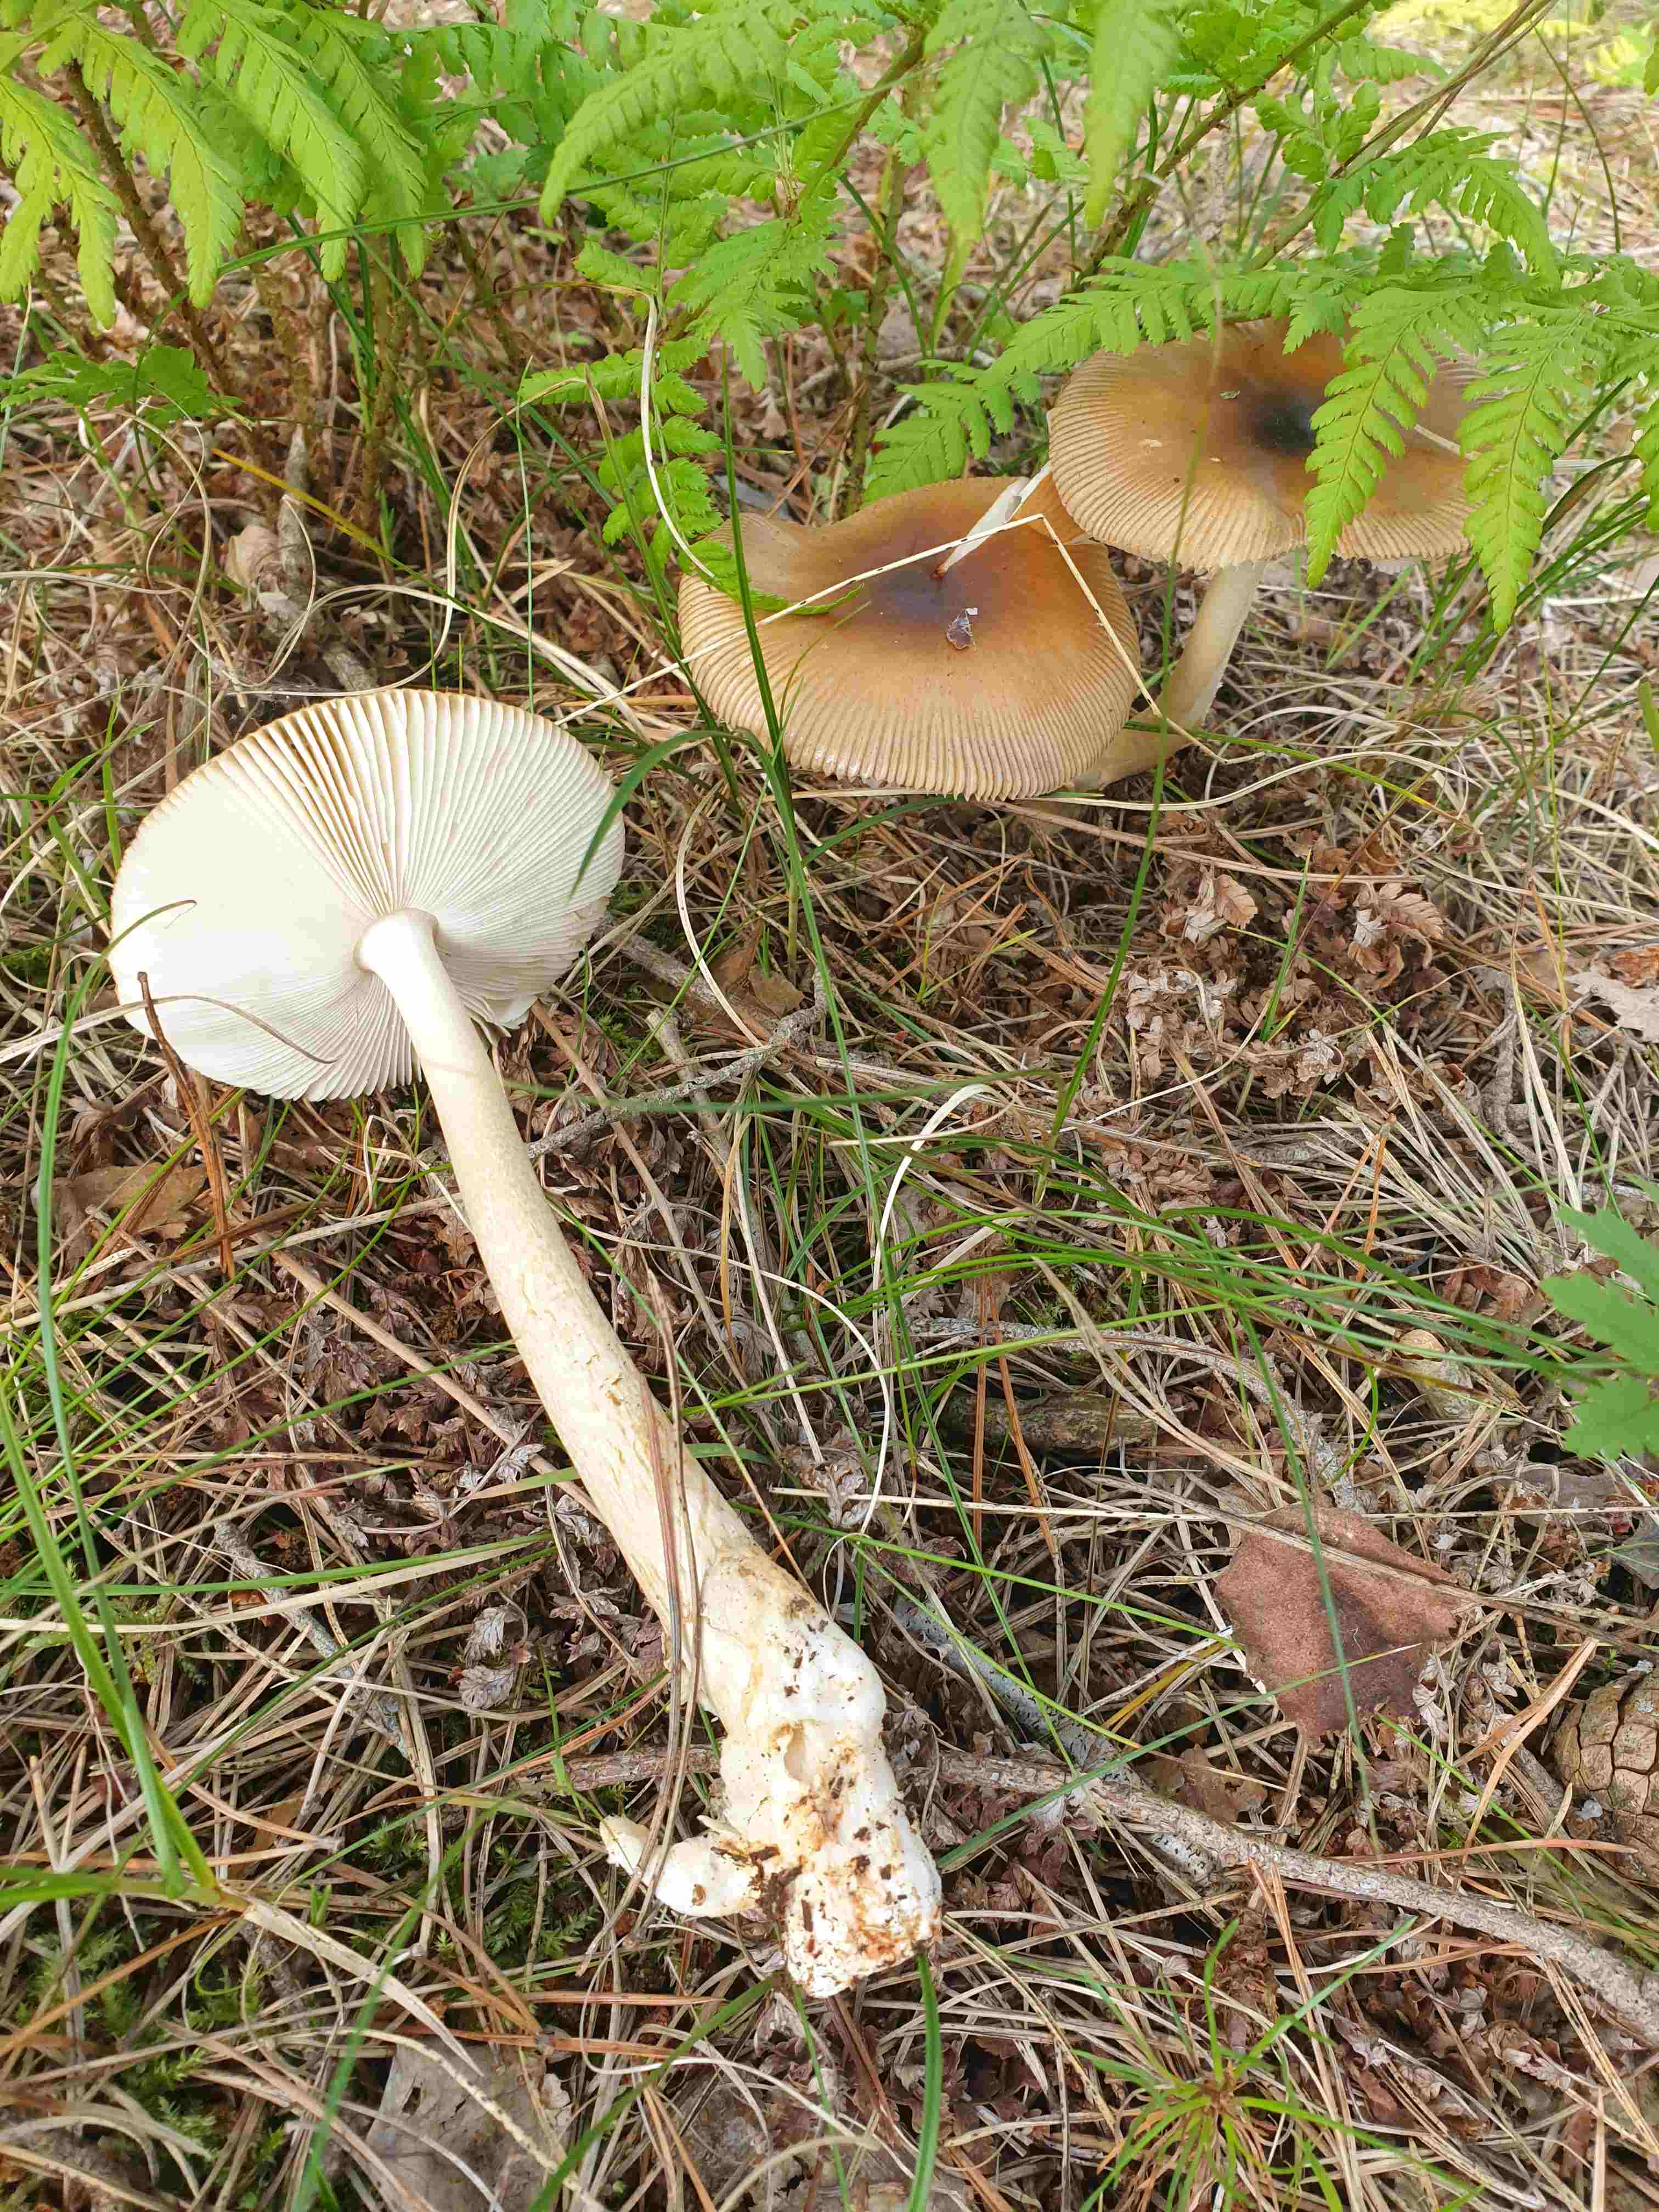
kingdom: Fungi
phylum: Basidiomycota
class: Agaricomycetes
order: Agaricales
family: Amanitaceae
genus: Amanita
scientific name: Amanita fulva
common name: brun kam-fluesvamp
